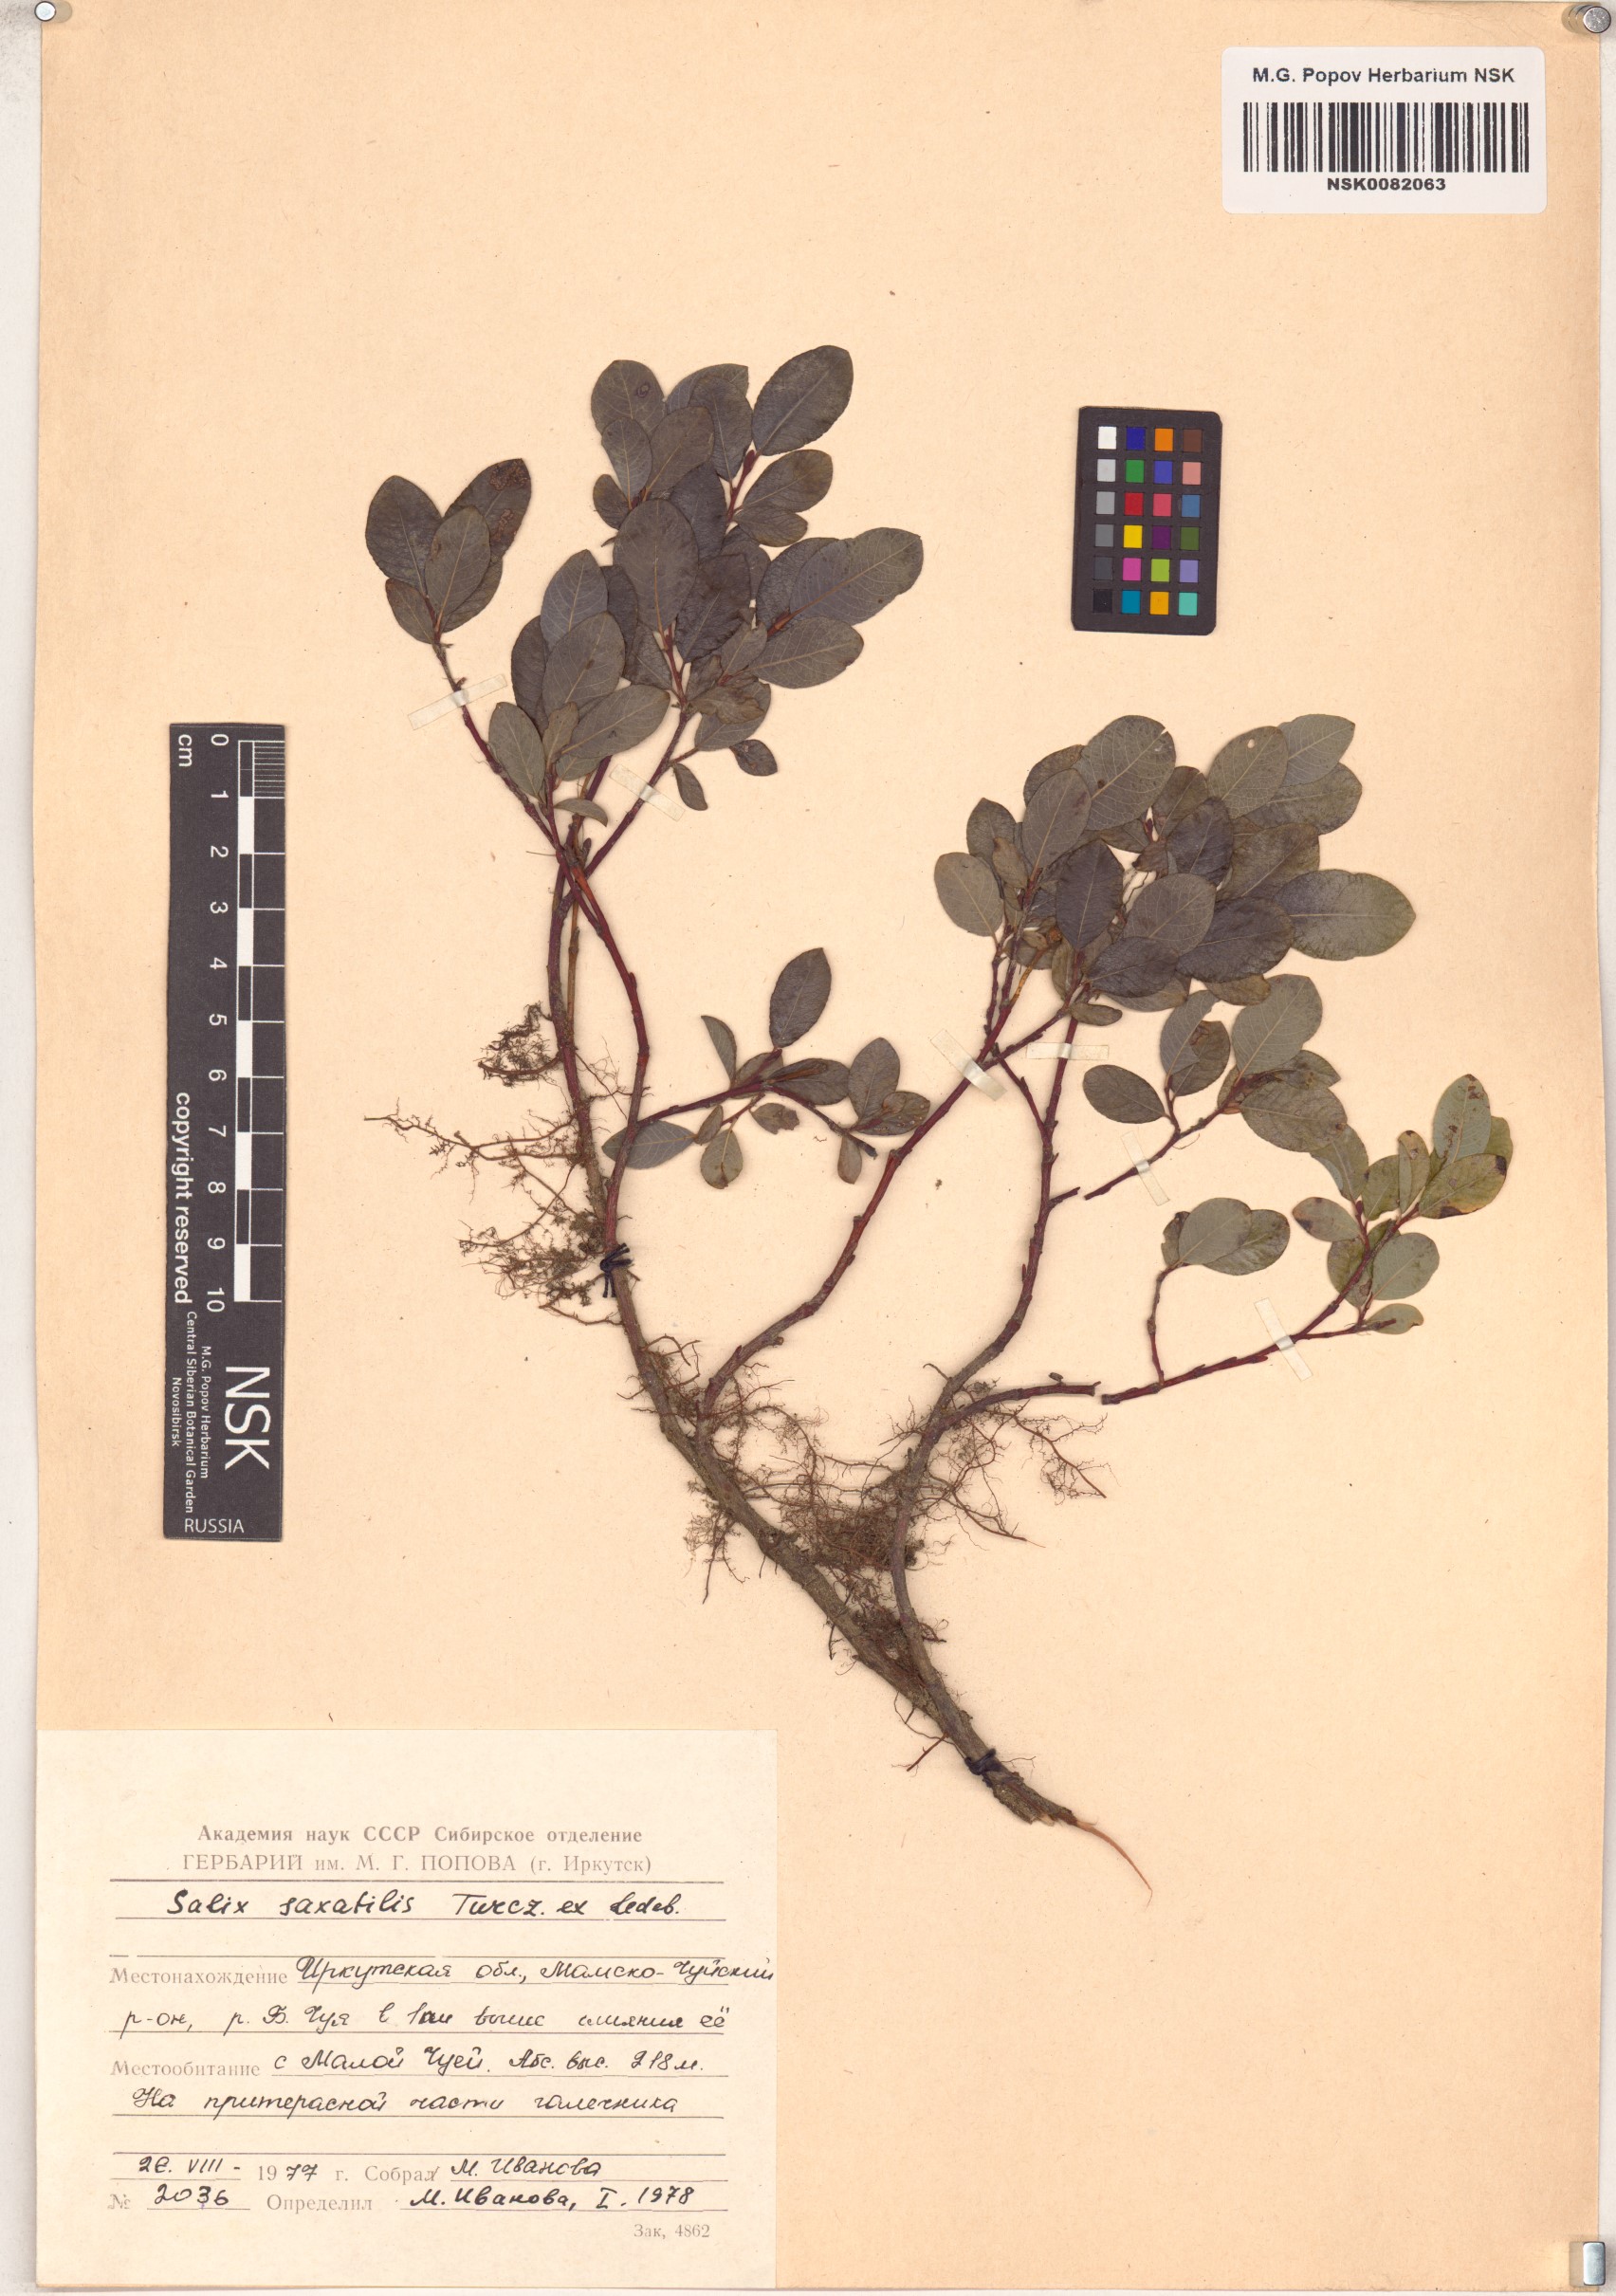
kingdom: Plantae
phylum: Tracheophyta
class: Magnoliopsida
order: Malpighiales
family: Salicaceae
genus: Salix
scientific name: Salix saxatilis
